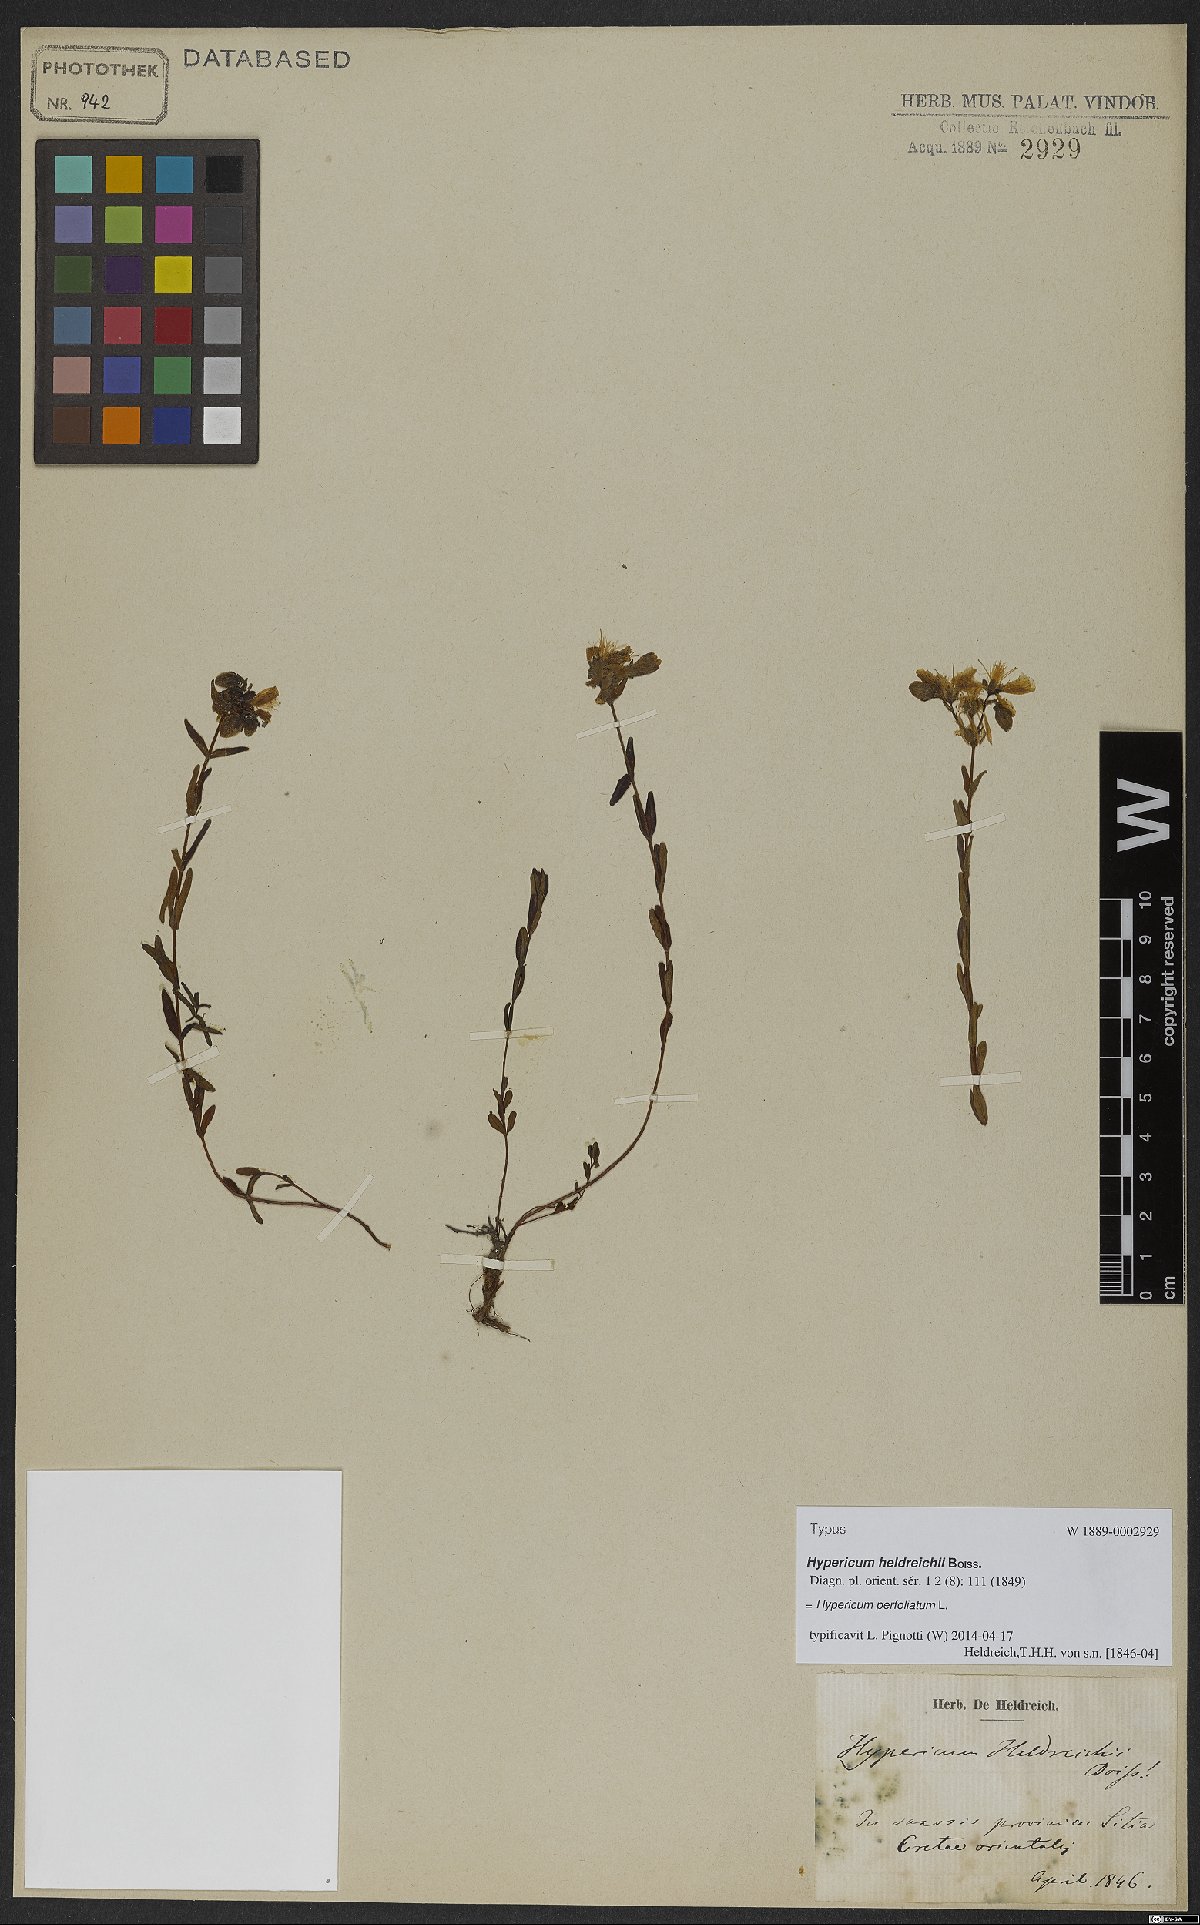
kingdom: Plantae
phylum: Tracheophyta
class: Magnoliopsida
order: Malpighiales
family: Hypericaceae
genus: Hypericum
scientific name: Hypericum perfoliatum
